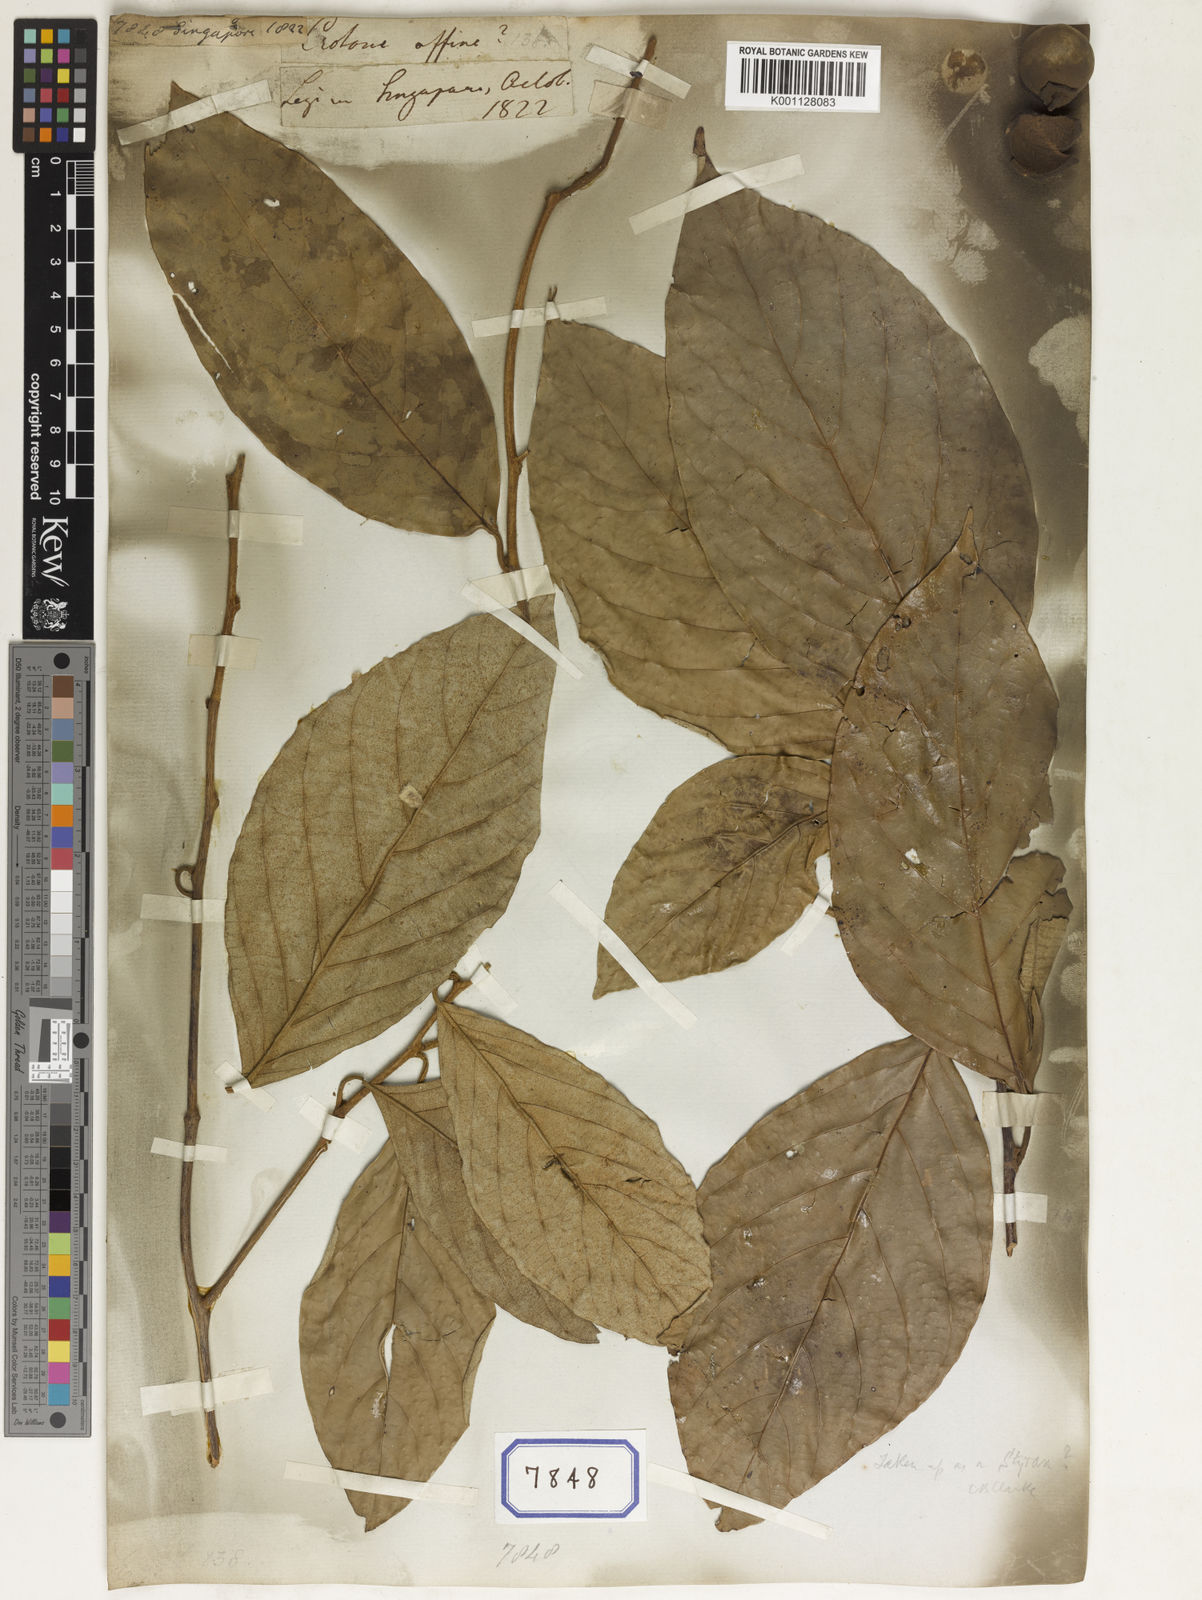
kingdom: Plantae
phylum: Tracheophyta
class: Magnoliopsida
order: Malpighiales
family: Euphorbiaceae
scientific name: Euphorbiaceae
